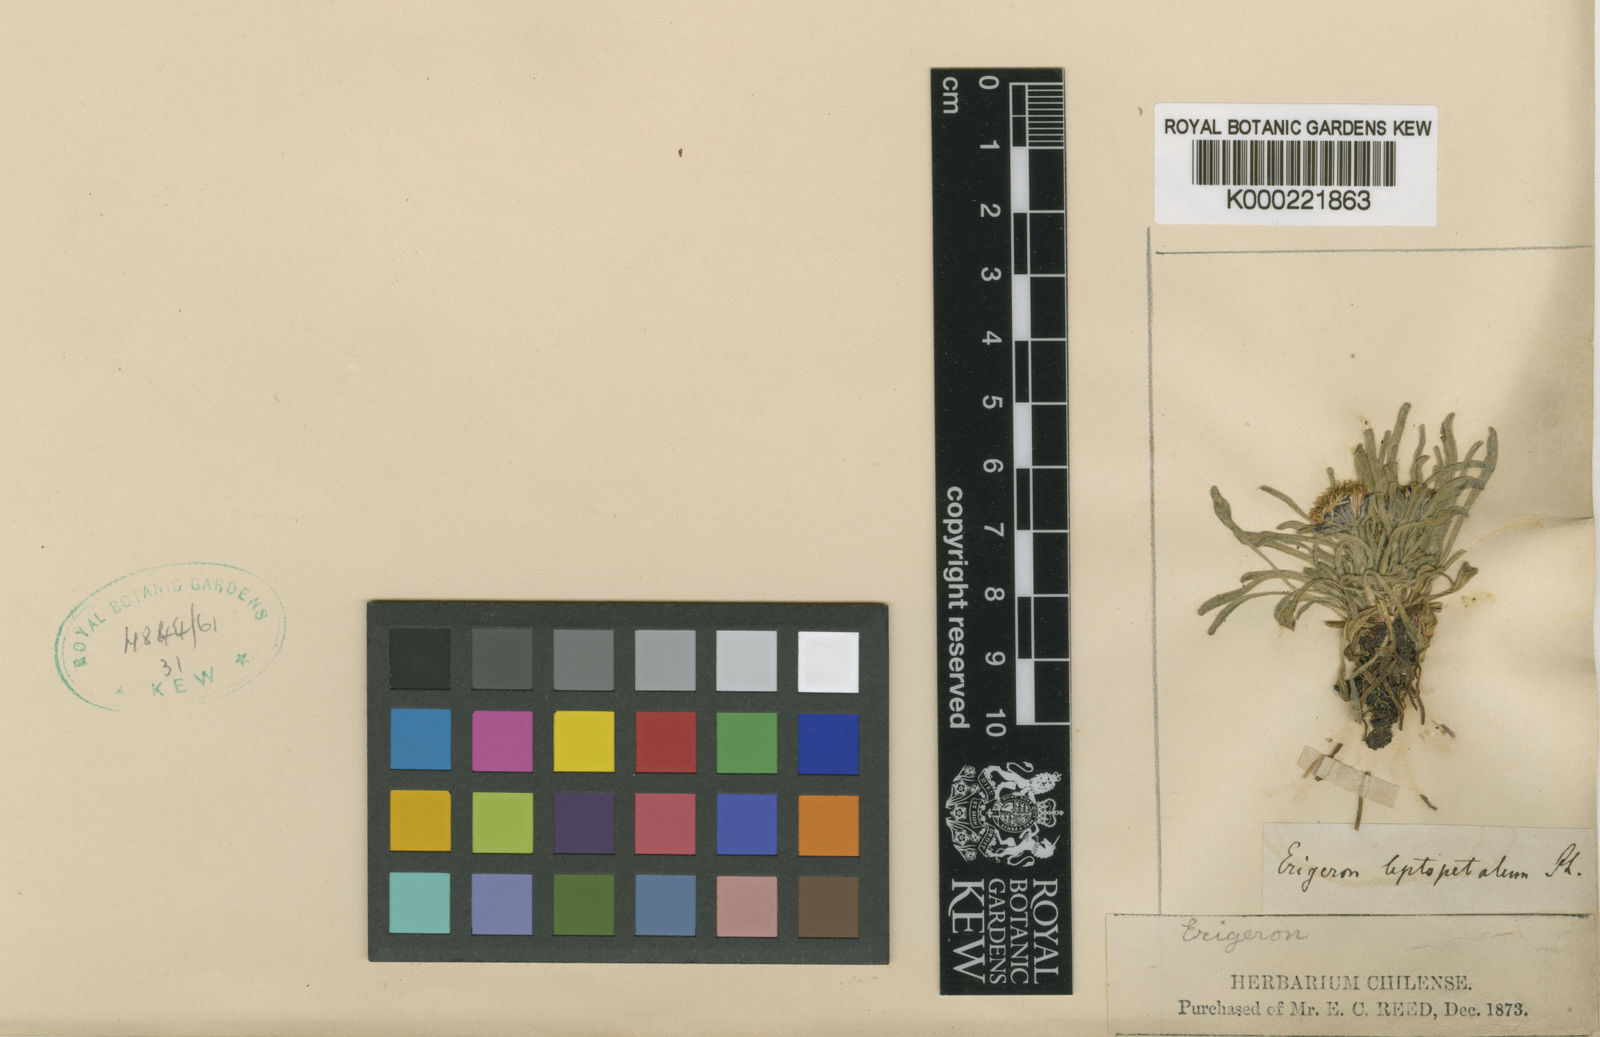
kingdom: Plantae
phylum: Tracheophyta
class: Magnoliopsida
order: Asterales
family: Asteraceae
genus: Erigeron
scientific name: Erigeron leptopetalus
